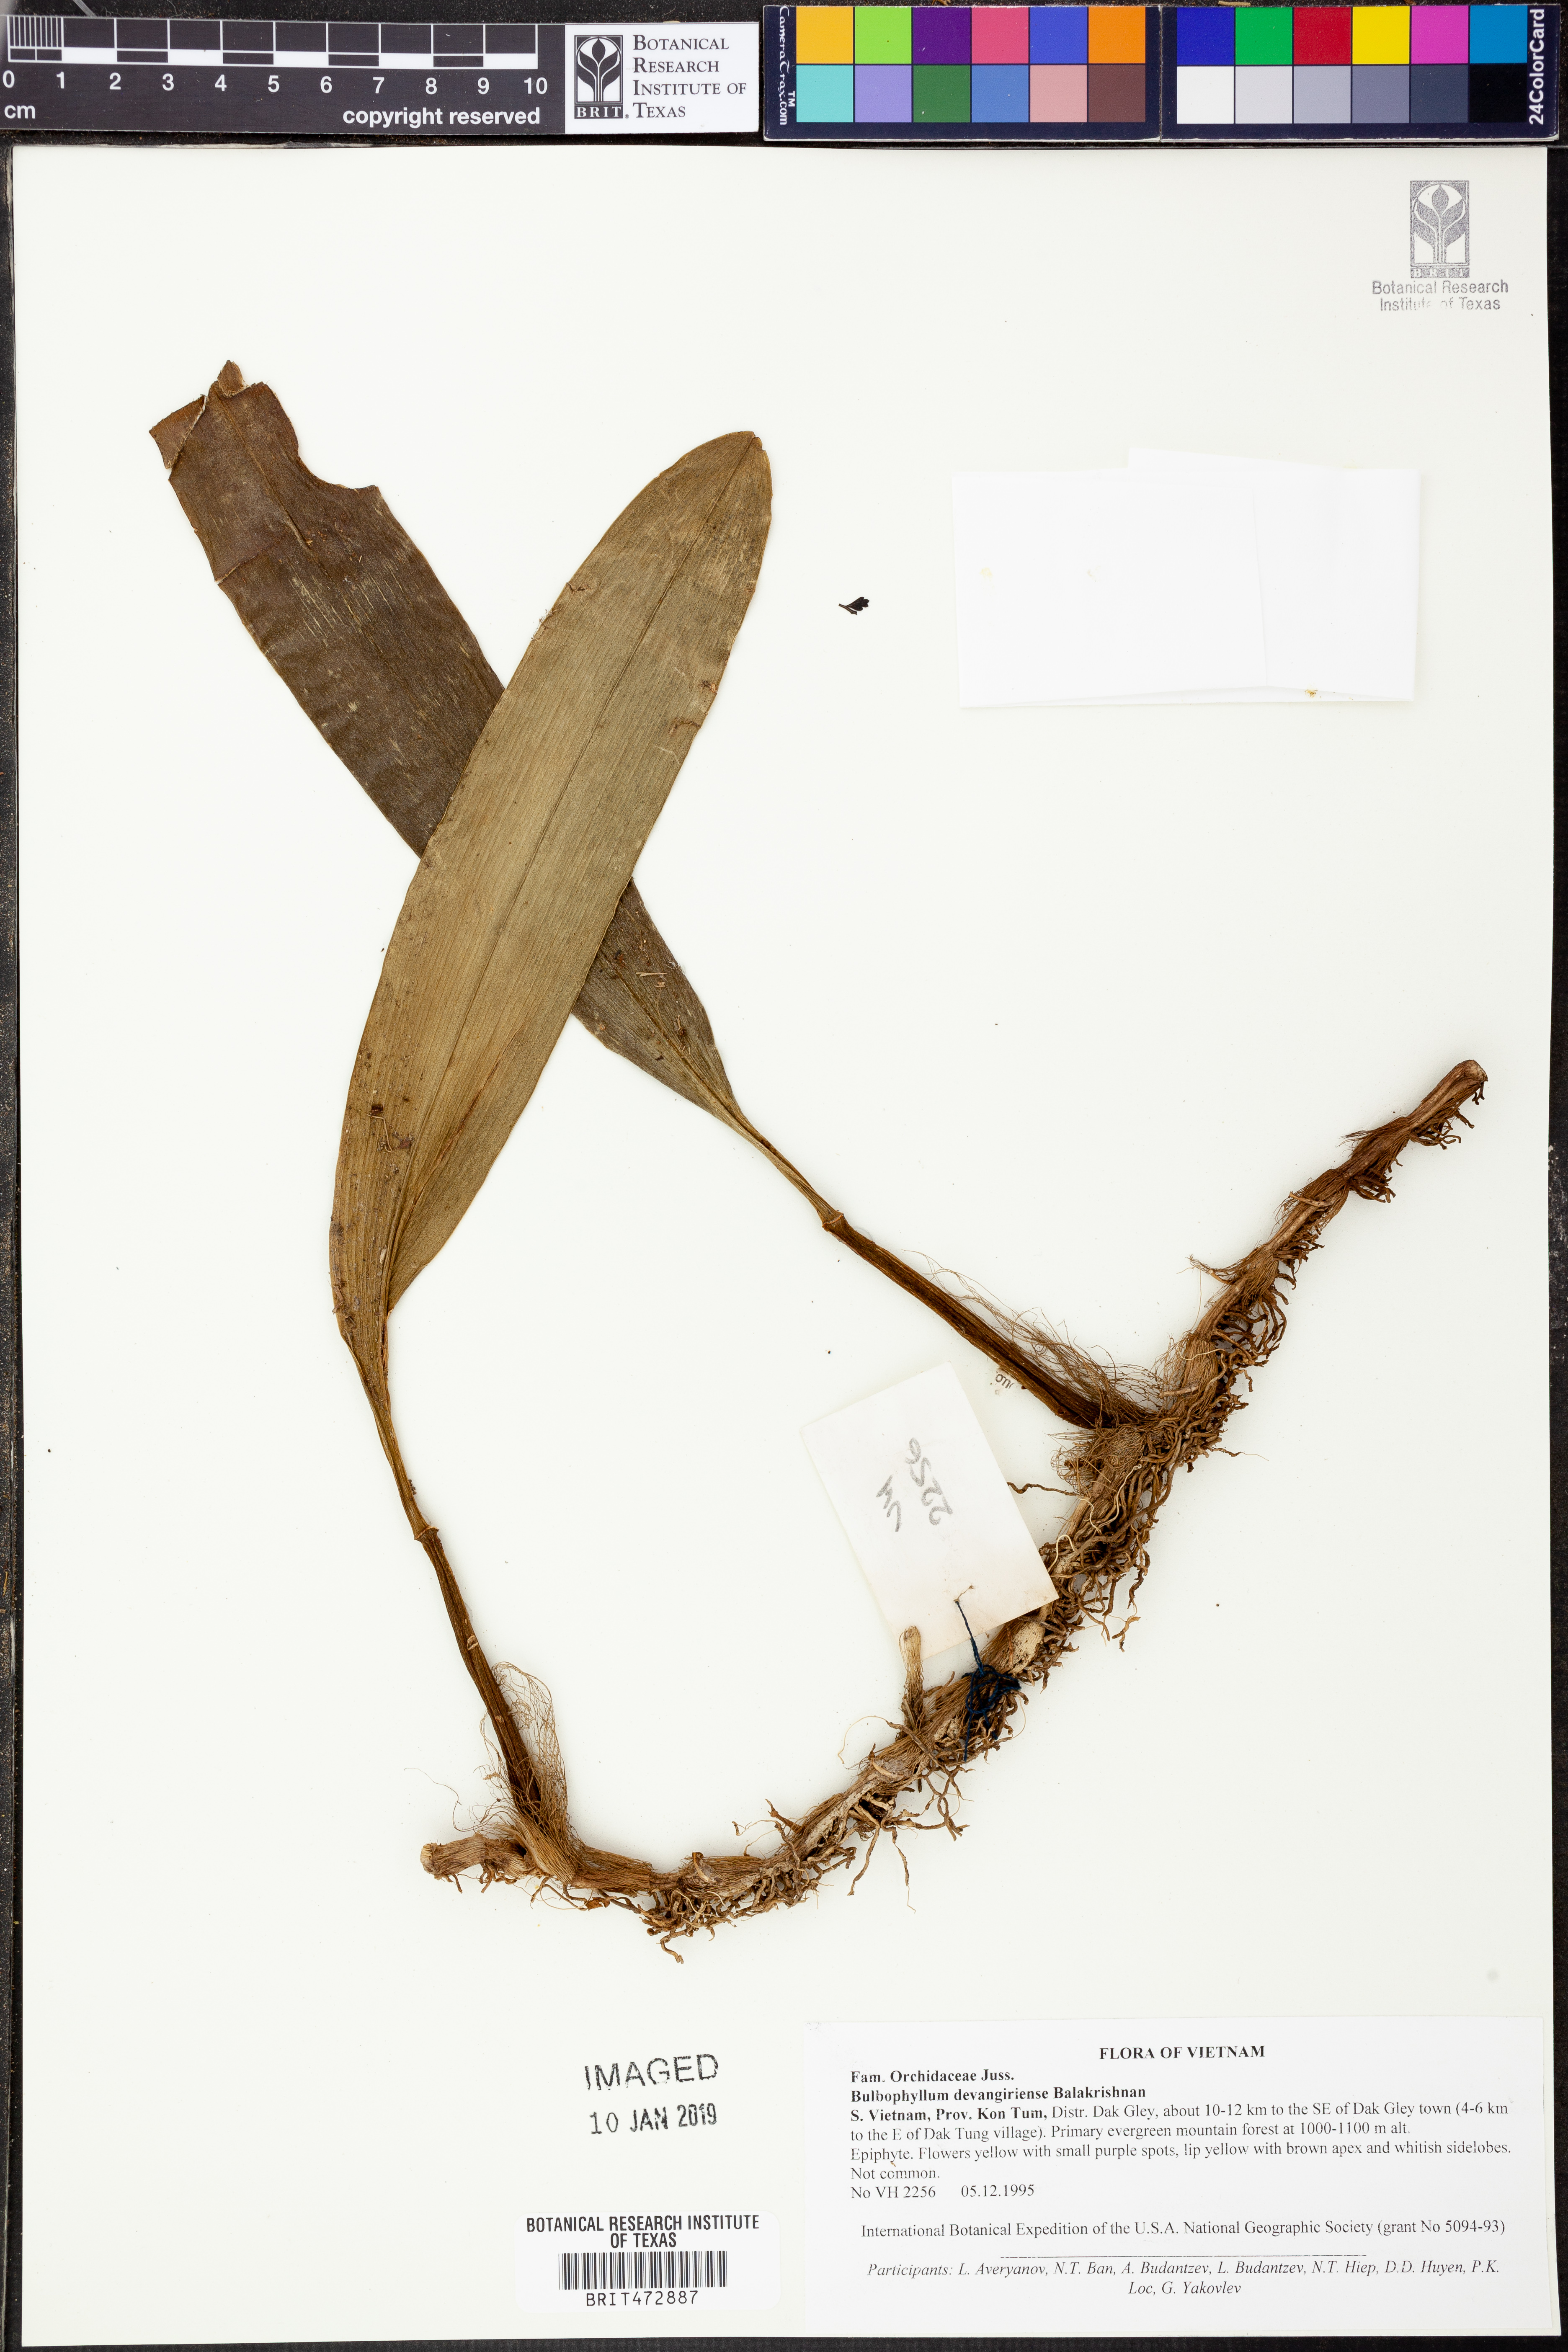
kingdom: Plantae
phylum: Tracheophyta
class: Liliopsida
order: Asparagales
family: Orchidaceae
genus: Bulbophyllum
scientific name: Bulbophyllum pteroglossum
